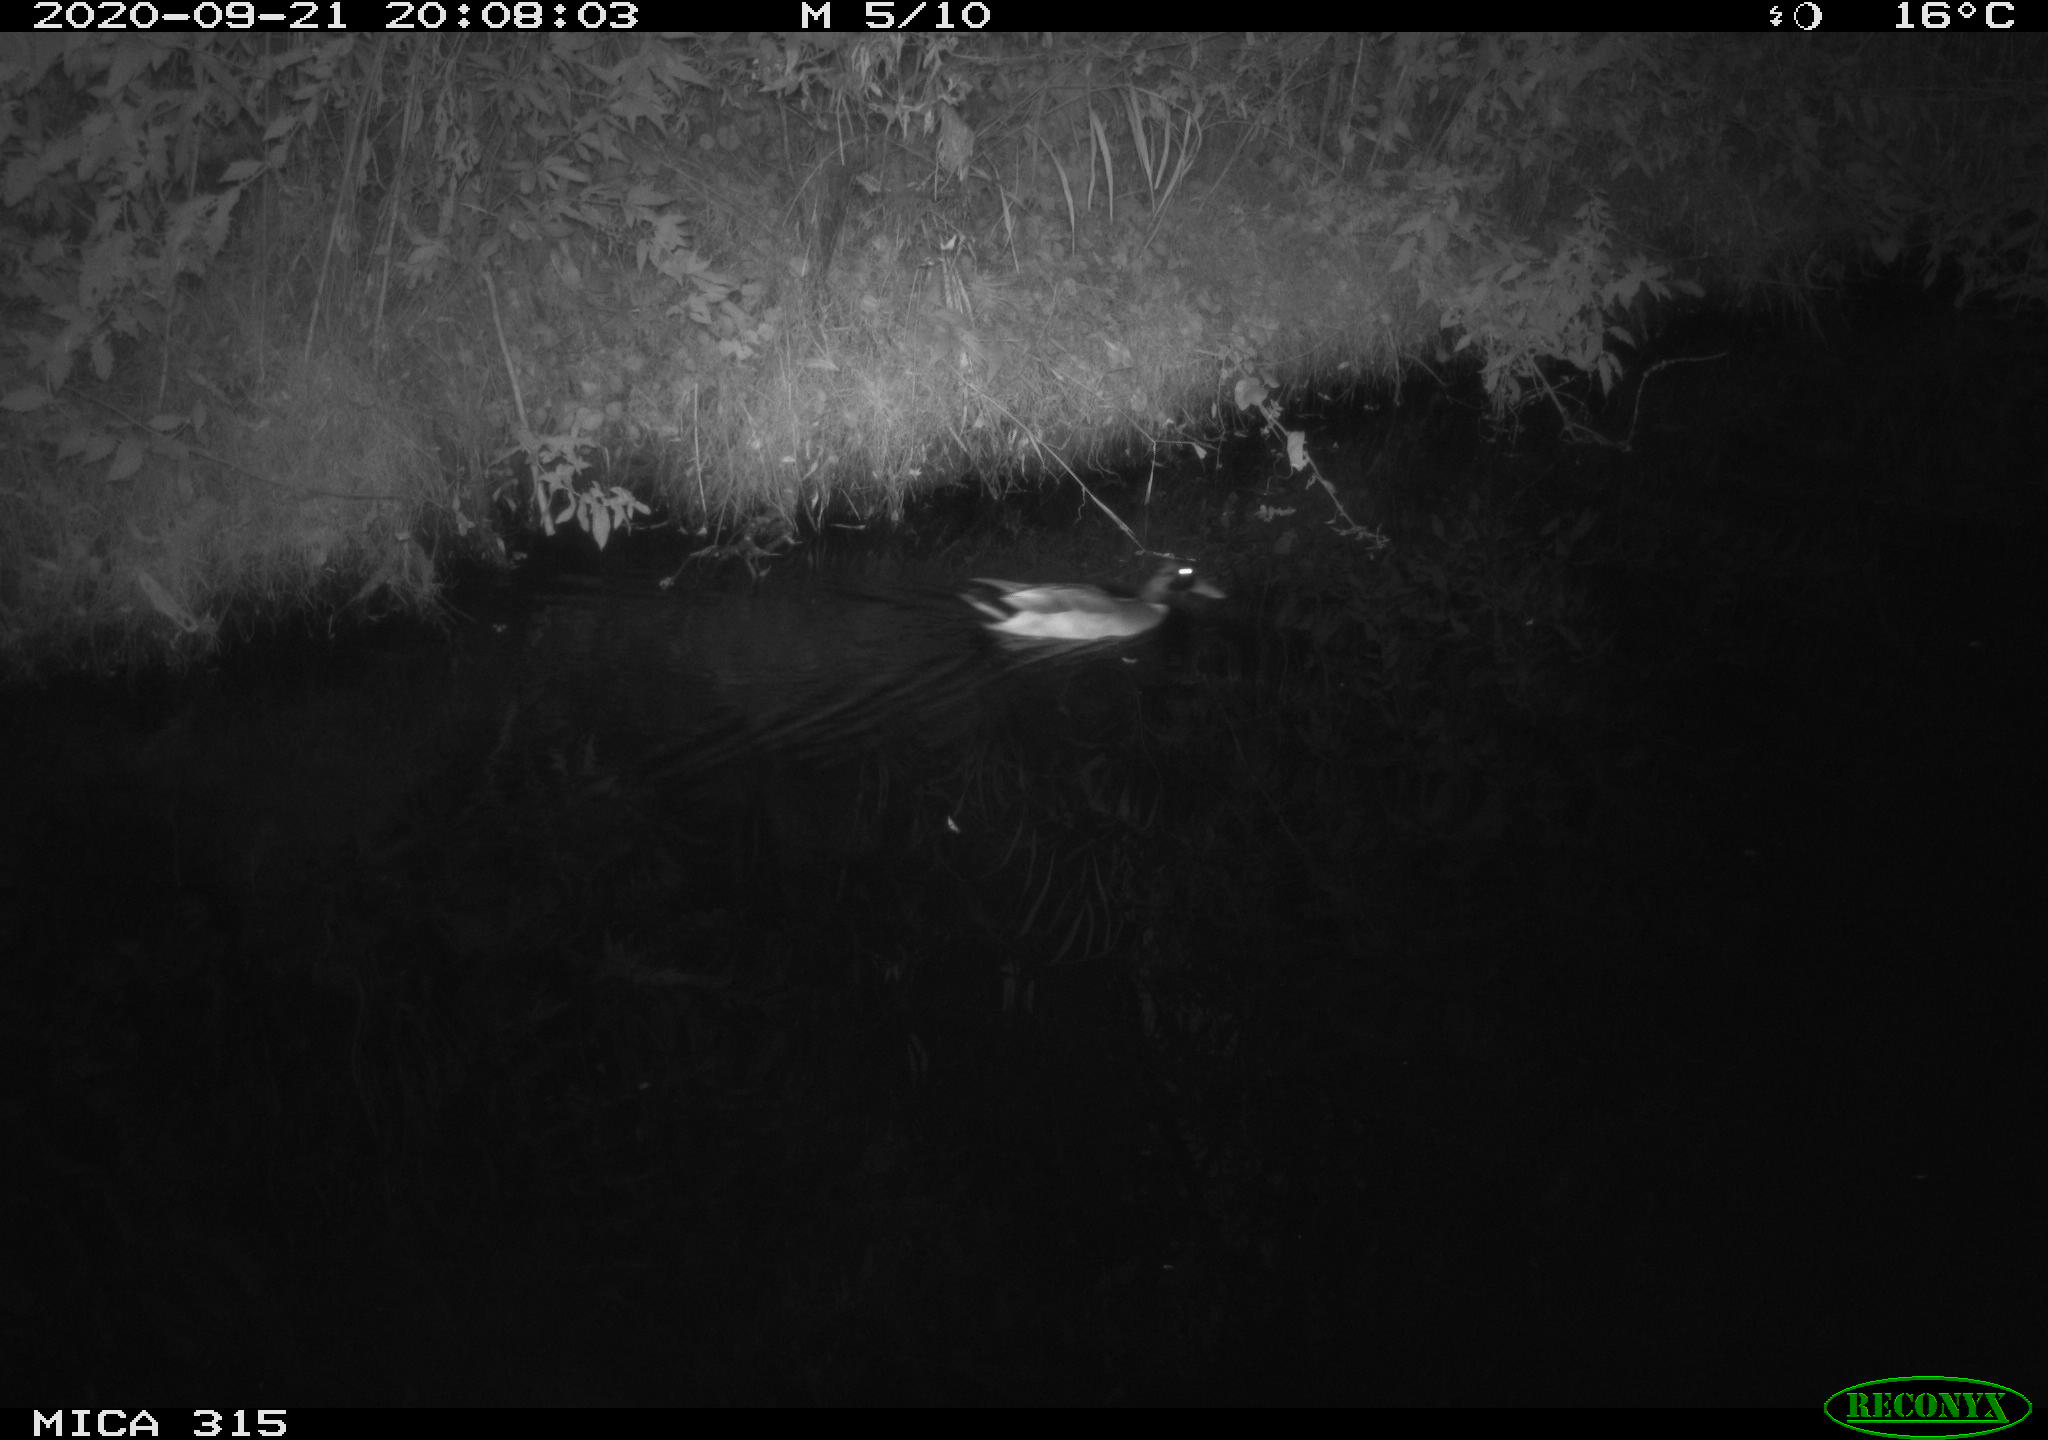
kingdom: Animalia
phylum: Chordata
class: Aves
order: Anseriformes
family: Anatidae
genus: Anas
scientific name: Anas platyrhynchos
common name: Mallard
